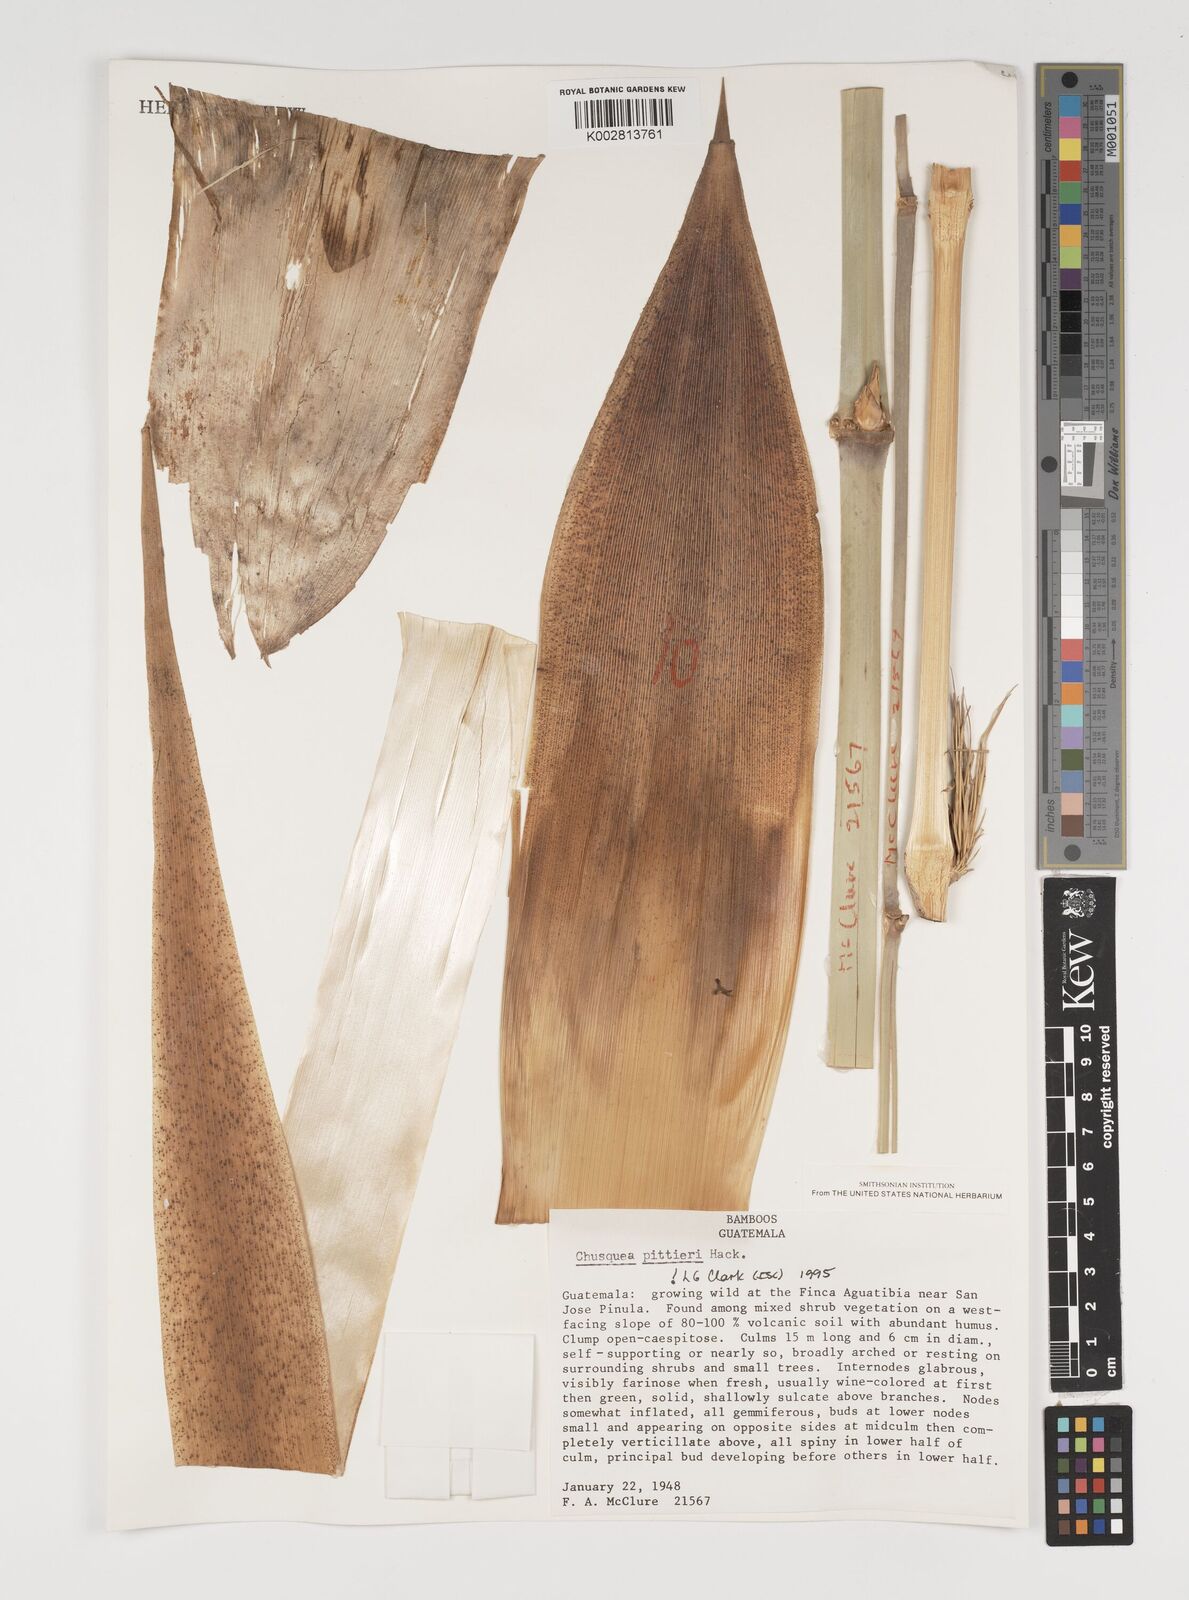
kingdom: Plantae
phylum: Tracheophyta
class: Liliopsida
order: Poales
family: Poaceae
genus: Chusquea
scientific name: Chusquea pittieri
